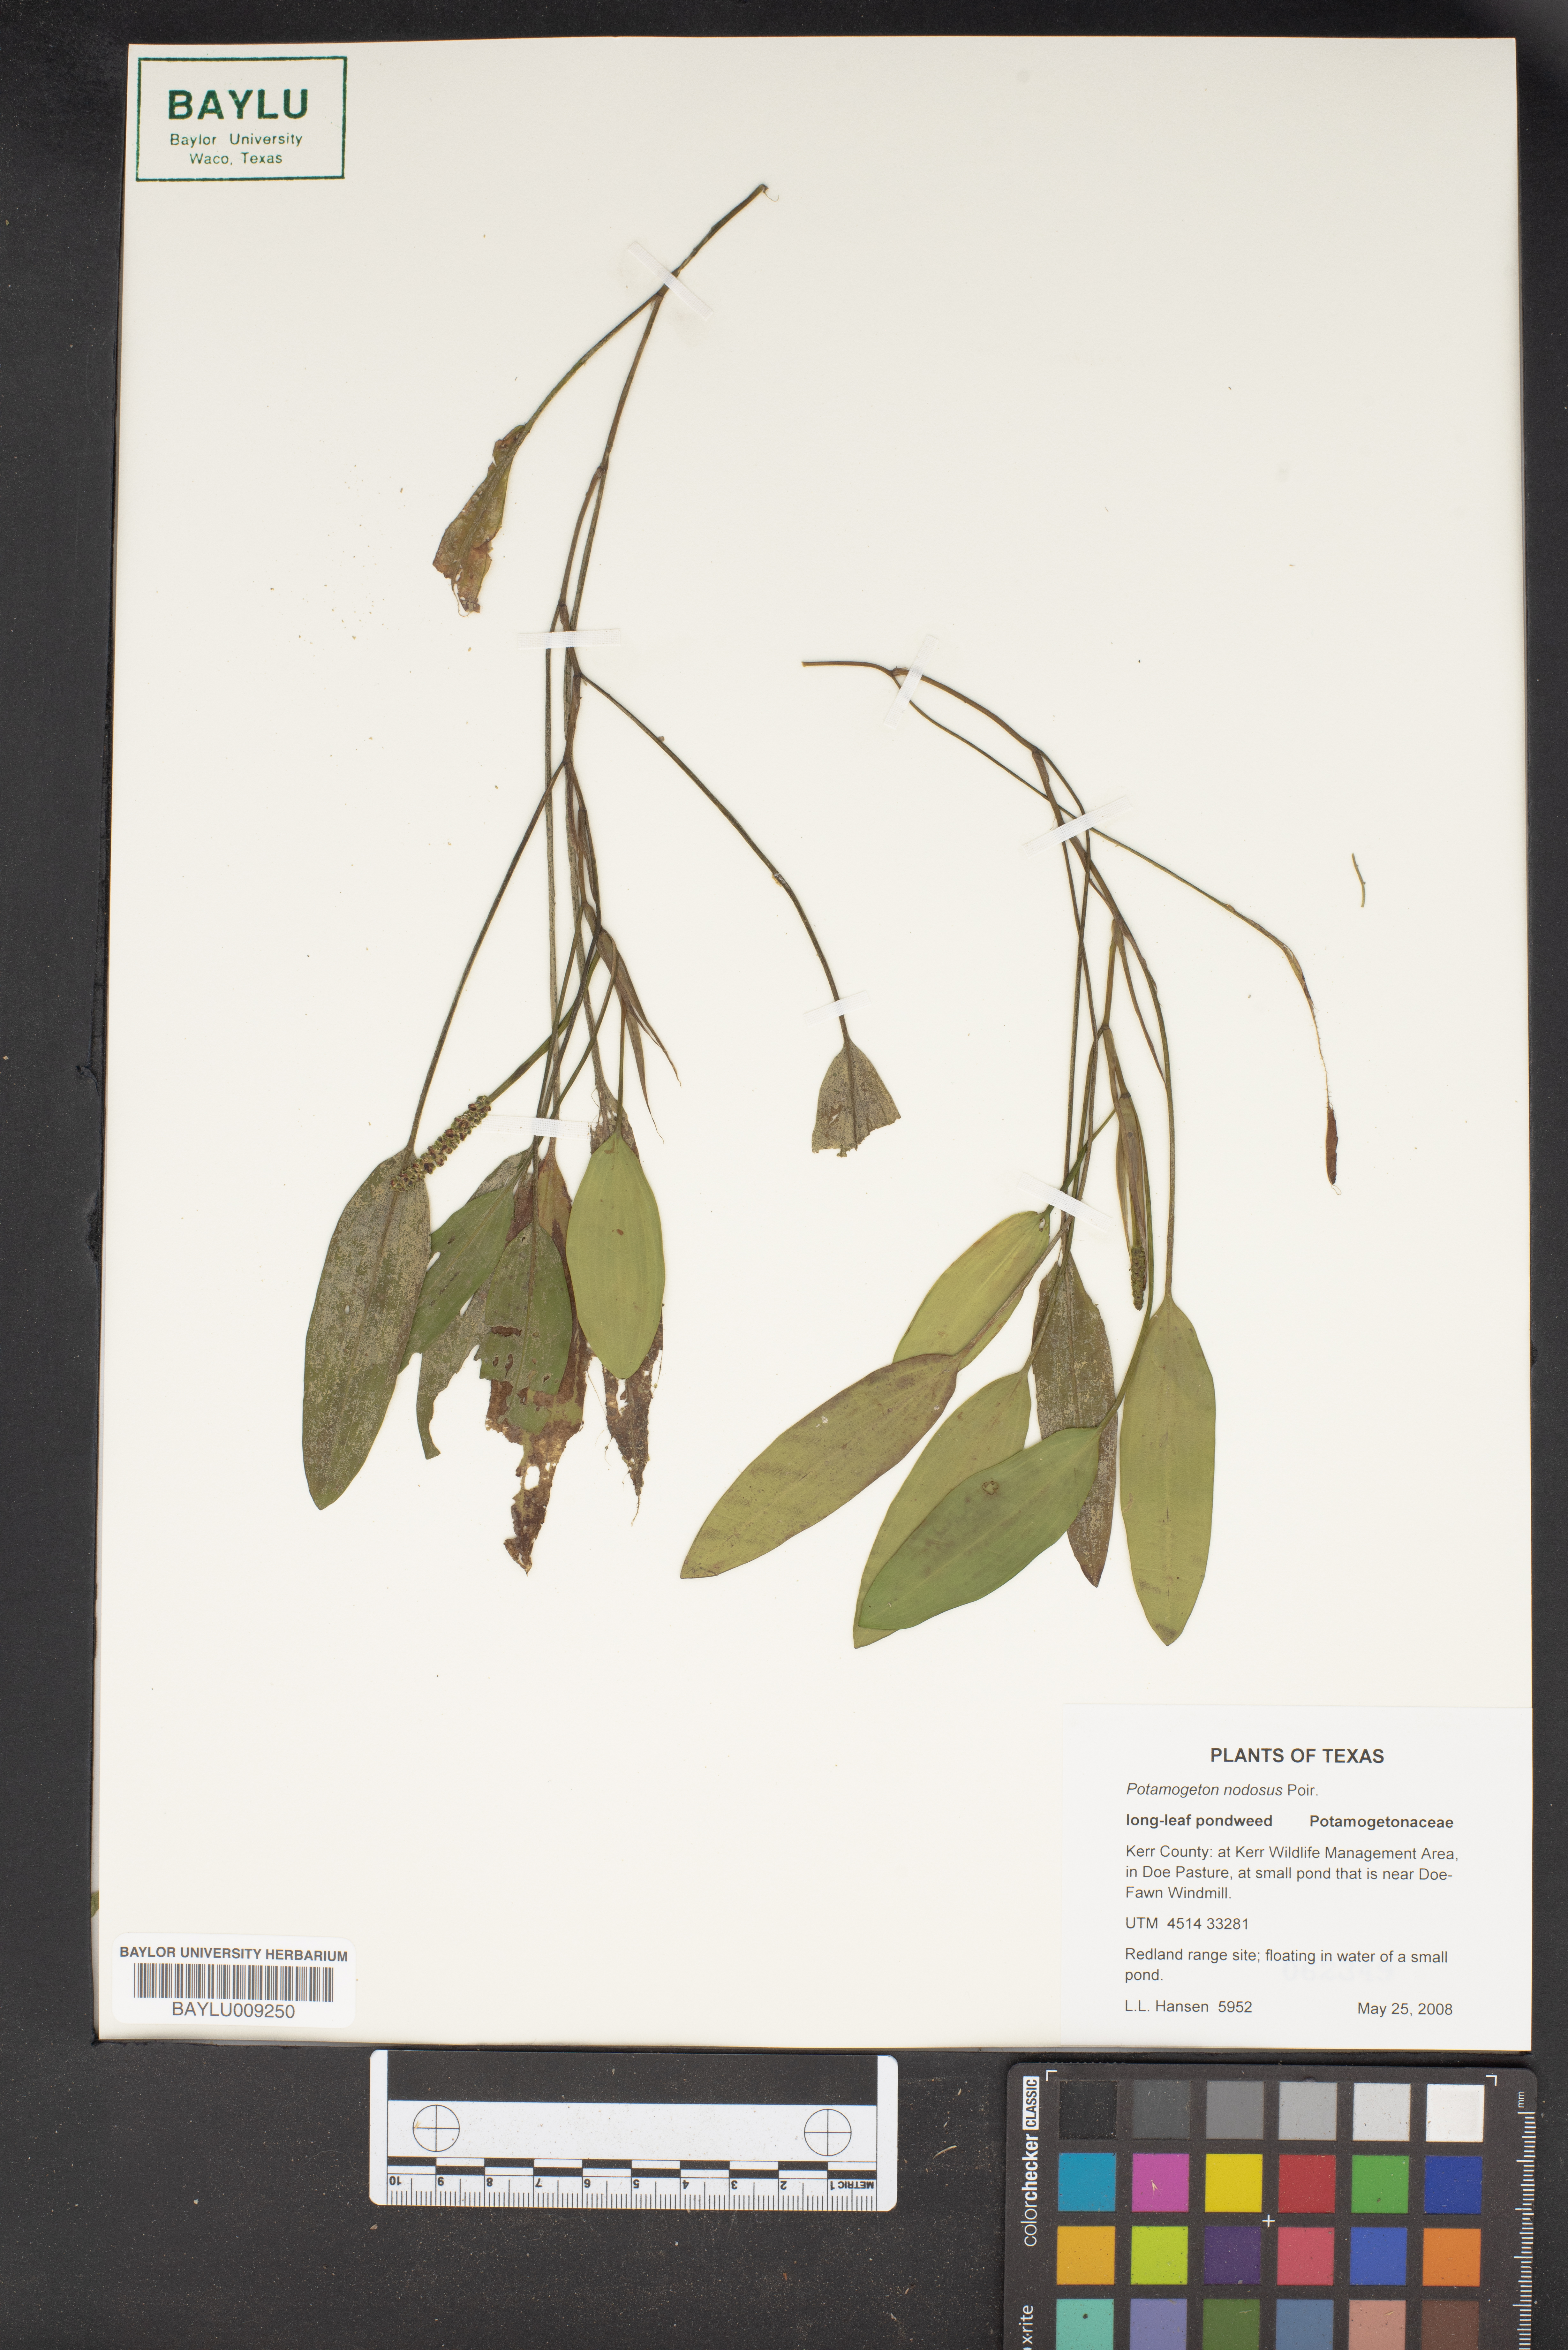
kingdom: Plantae
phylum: Tracheophyta
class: Liliopsida
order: Alismatales
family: Potamogetonaceae
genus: Potamogeton
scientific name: Potamogeton nodosus
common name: Loddon pondweed
